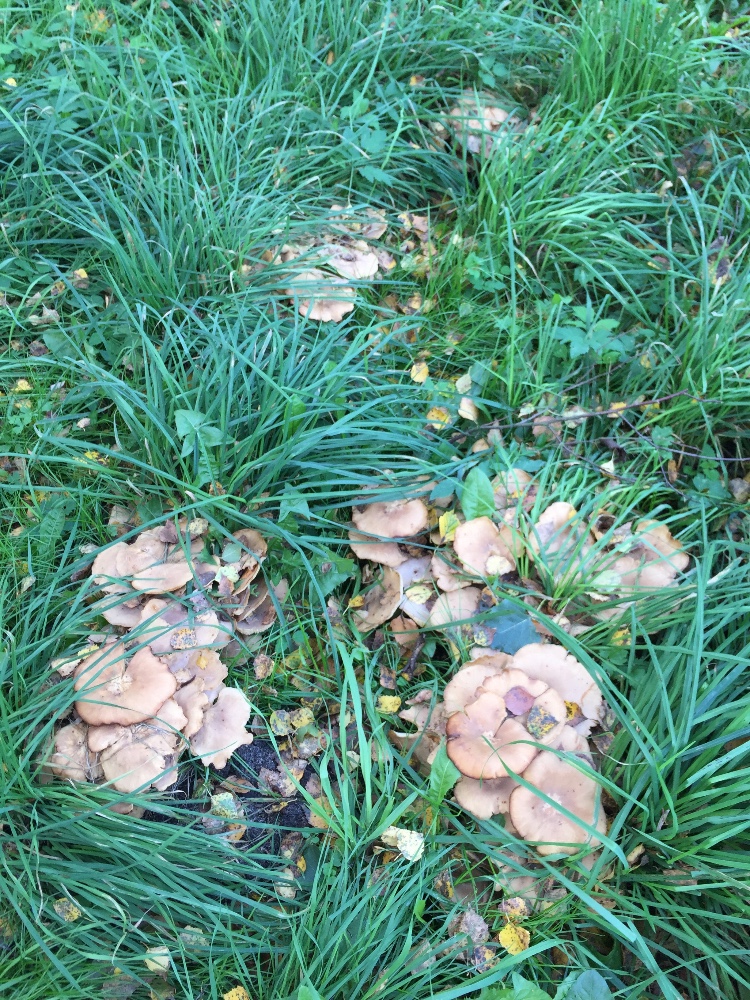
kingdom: Fungi
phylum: Basidiomycota
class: Agaricomycetes
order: Agaricales
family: Lyophyllaceae
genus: Lyophyllum
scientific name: Lyophyllum decastes
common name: røggrå gråblad
